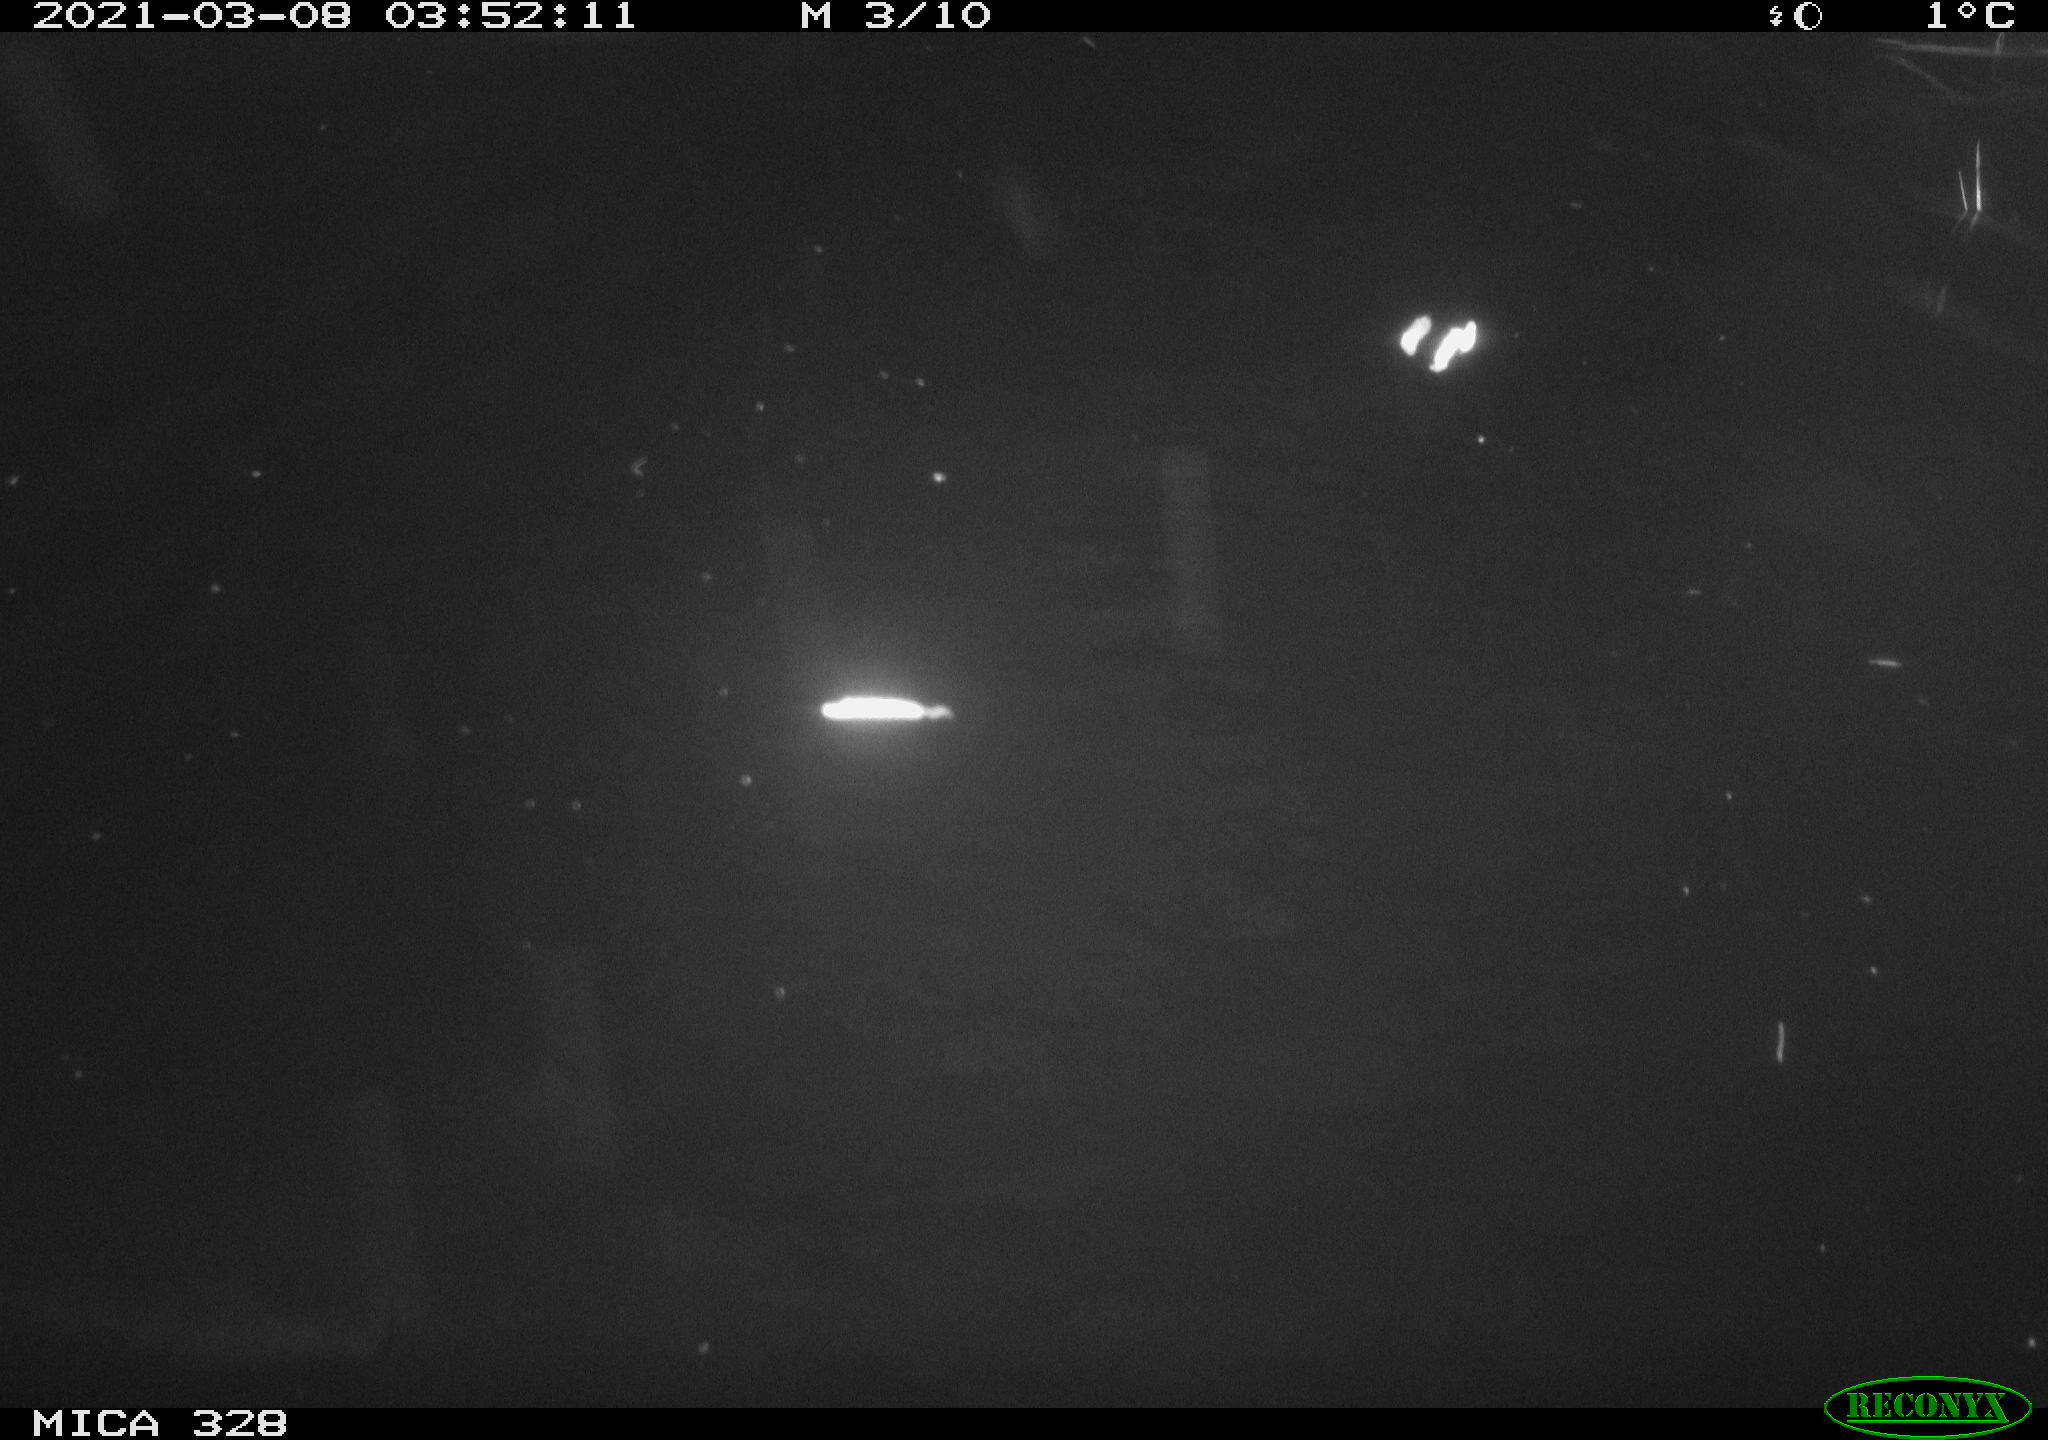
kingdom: Animalia
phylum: Chordata
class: Mammalia
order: Rodentia
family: Cricetidae
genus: Ondatra
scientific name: Ondatra zibethicus
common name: Muskrat
